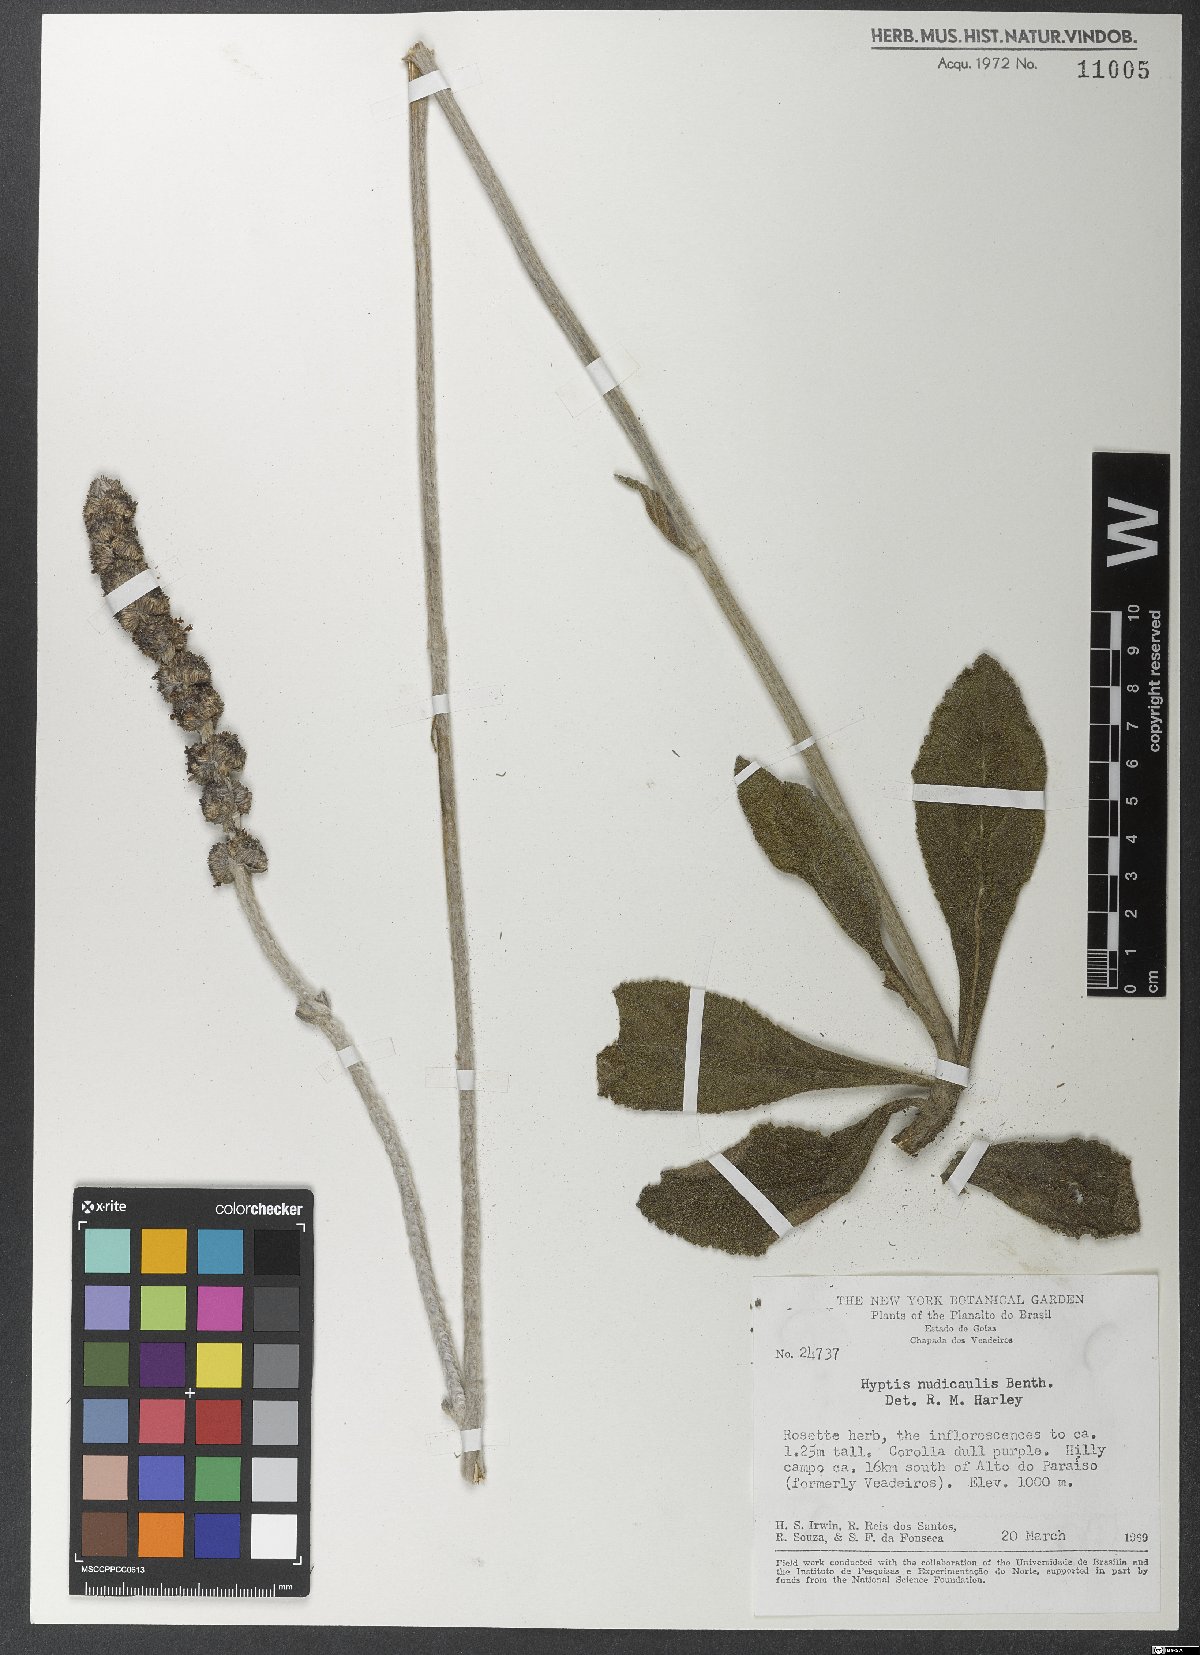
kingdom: Plantae
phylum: Tracheophyta
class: Magnoliopsida
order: Lamiales
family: Lamiaceae
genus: Hyptis
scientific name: Hyptis nudicaulis
